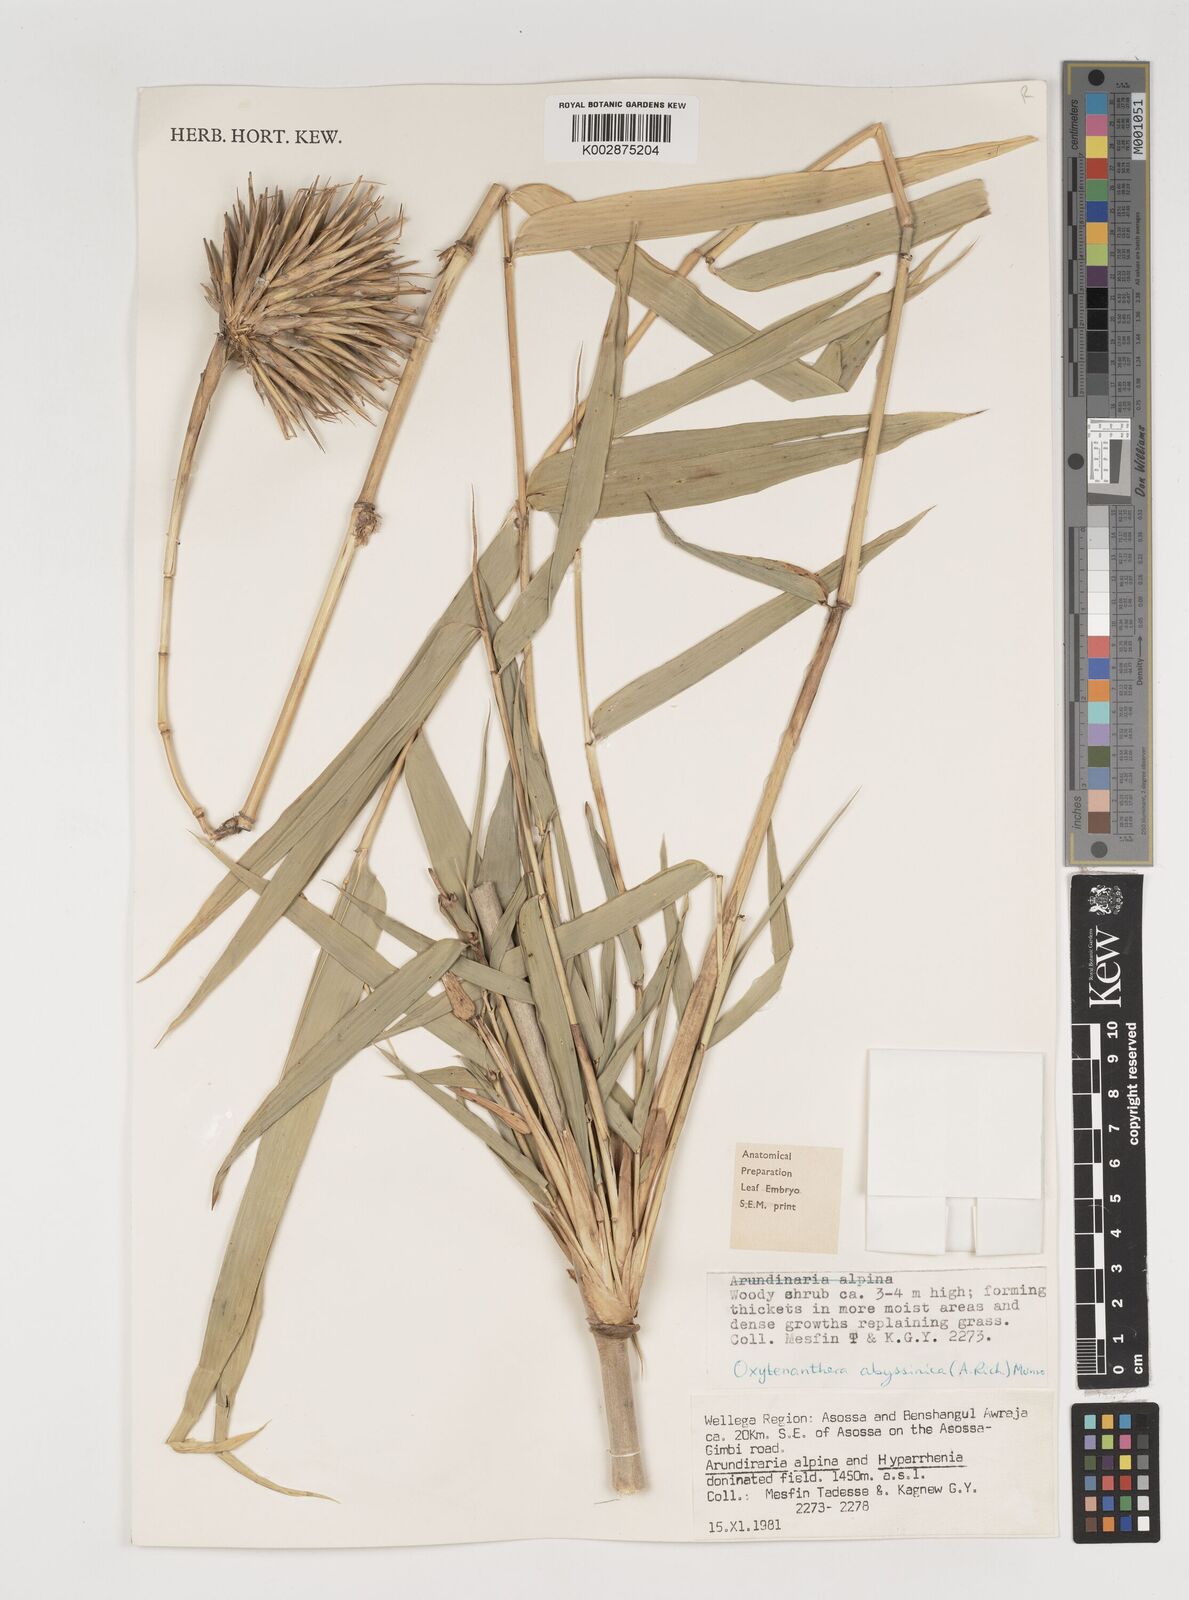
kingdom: Plantae
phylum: Tracheophyta
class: Liliopsida
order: Poales
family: Poaceae
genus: Oxytenanthera
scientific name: Oxytenanthera abyssinica
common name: Wine bamboo
